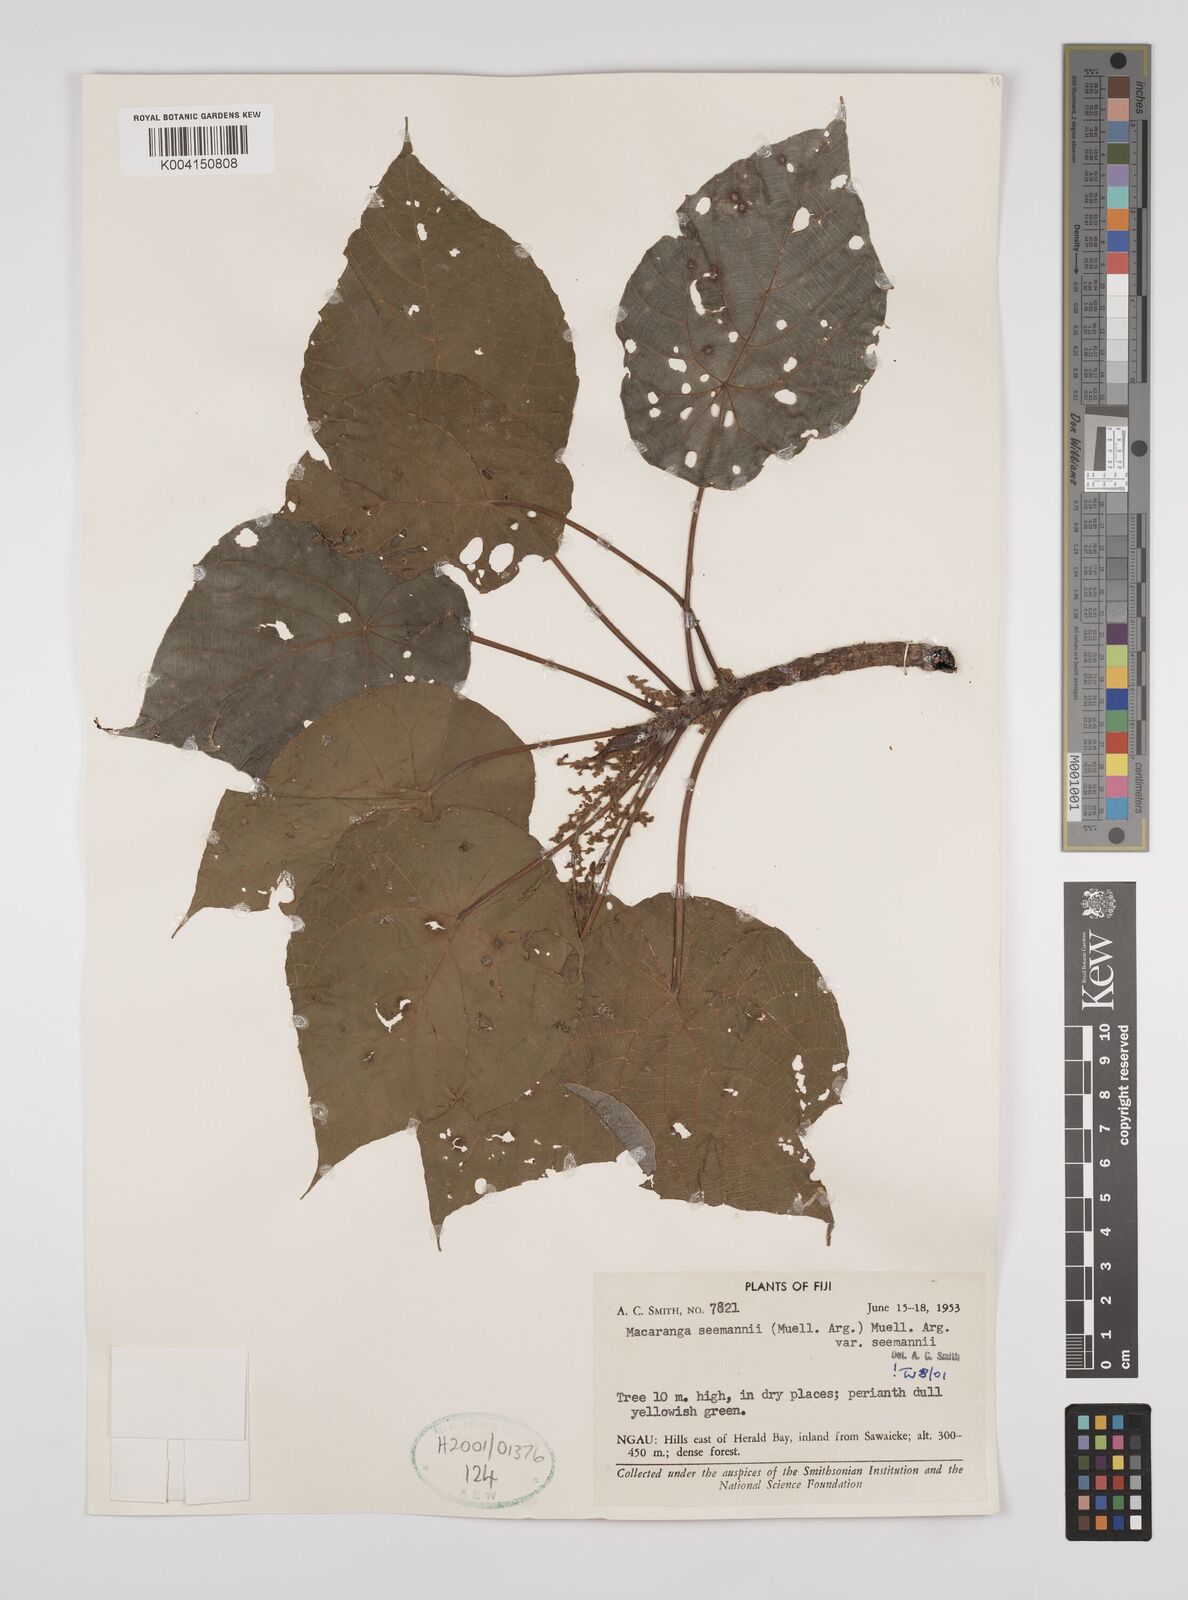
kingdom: Plantae
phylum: Tracheophyta
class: Magnoliopsida
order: Malpighiales
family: Euphorbiaceae
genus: Macaranga
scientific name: Macaranga seemannii
